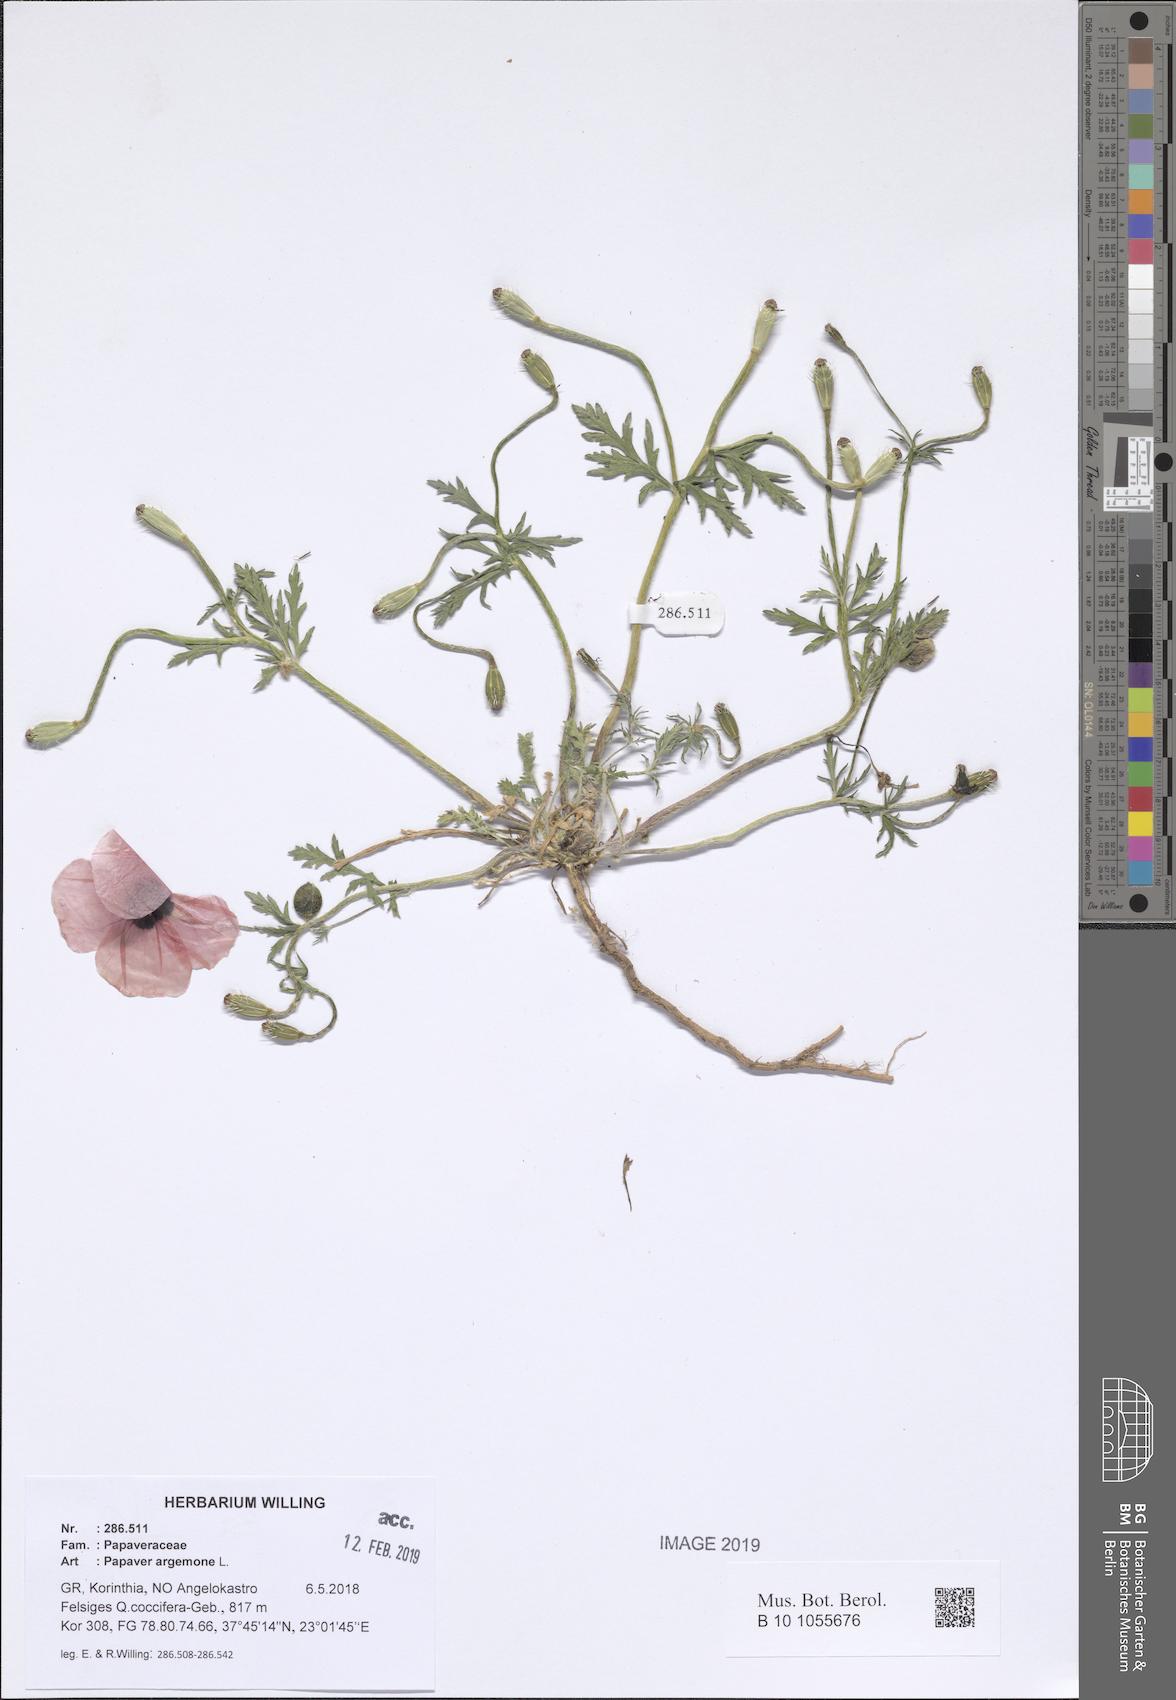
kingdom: Plantae
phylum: Tracheophyta
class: Magnoliopsida
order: Ranunculales
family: Papaveraceae
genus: Roemeria
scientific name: Roemeria argemone
